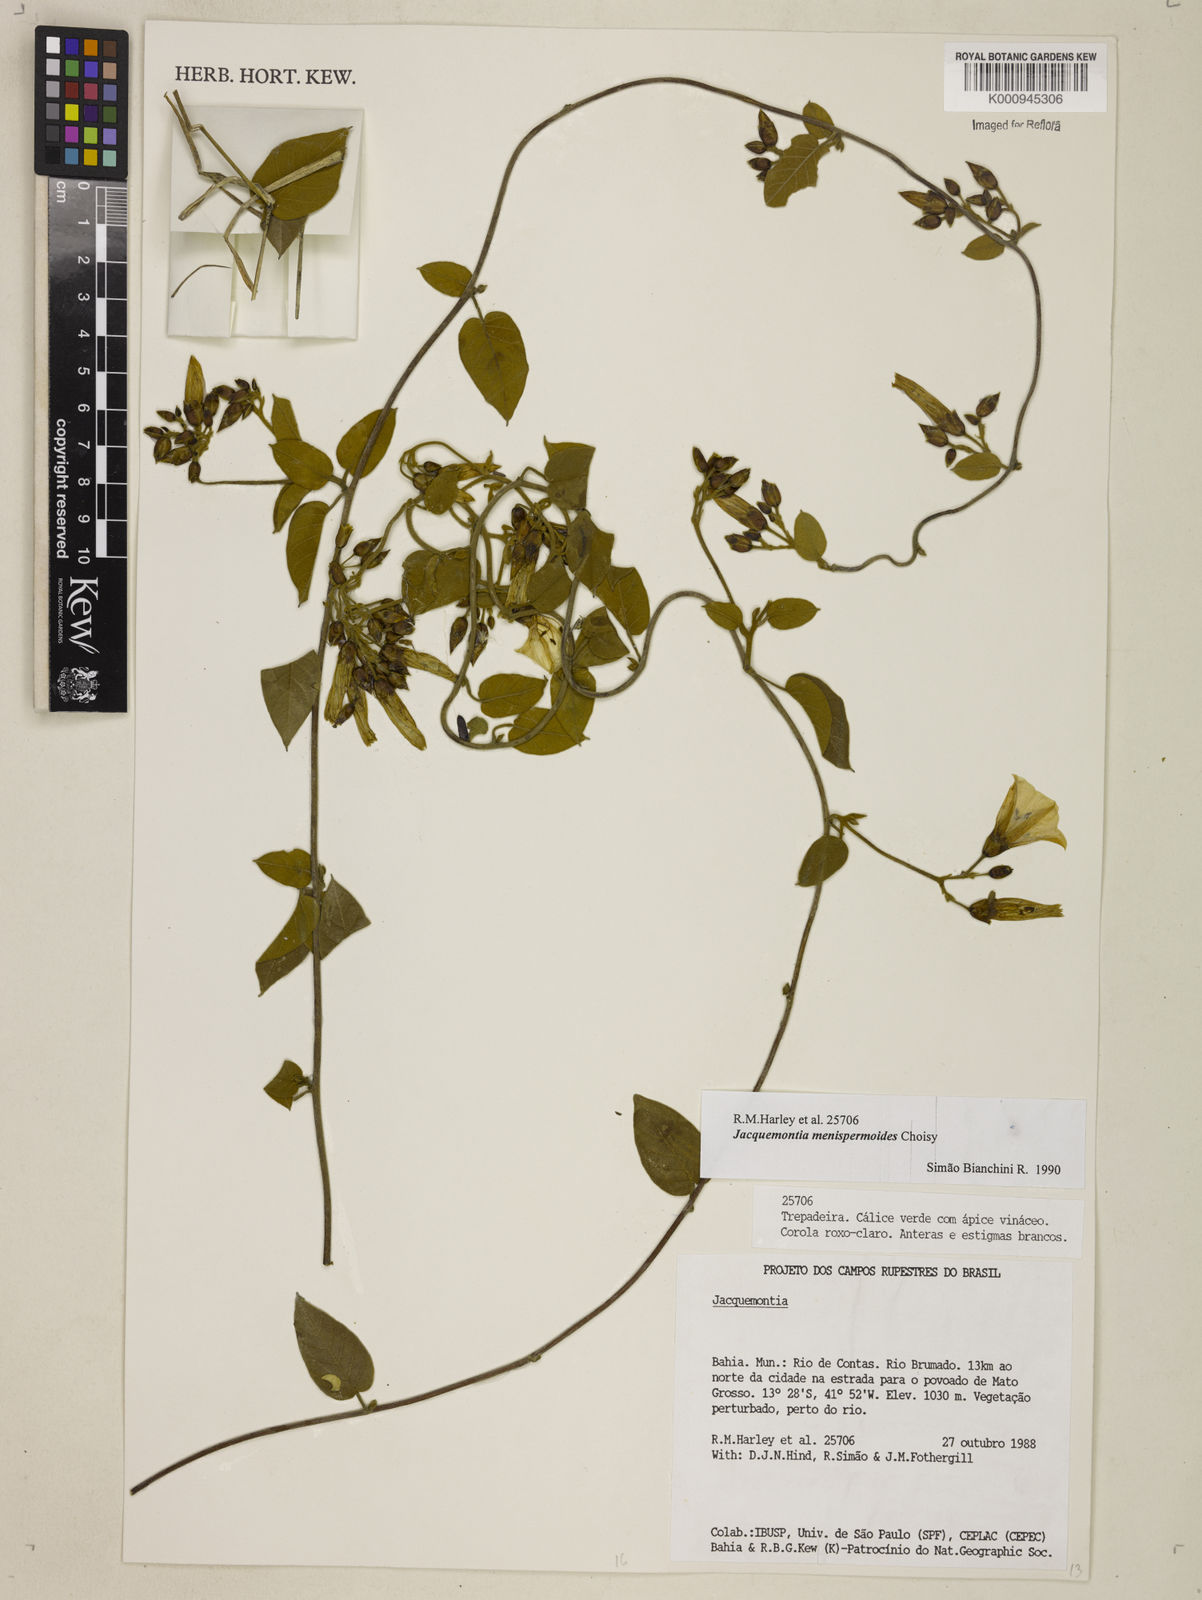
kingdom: Plantae
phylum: Tracheophyta
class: Magnoliopsida
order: Solanales
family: Convolvulaceae
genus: Jacquemontia
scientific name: Jacquemontia holosericea
